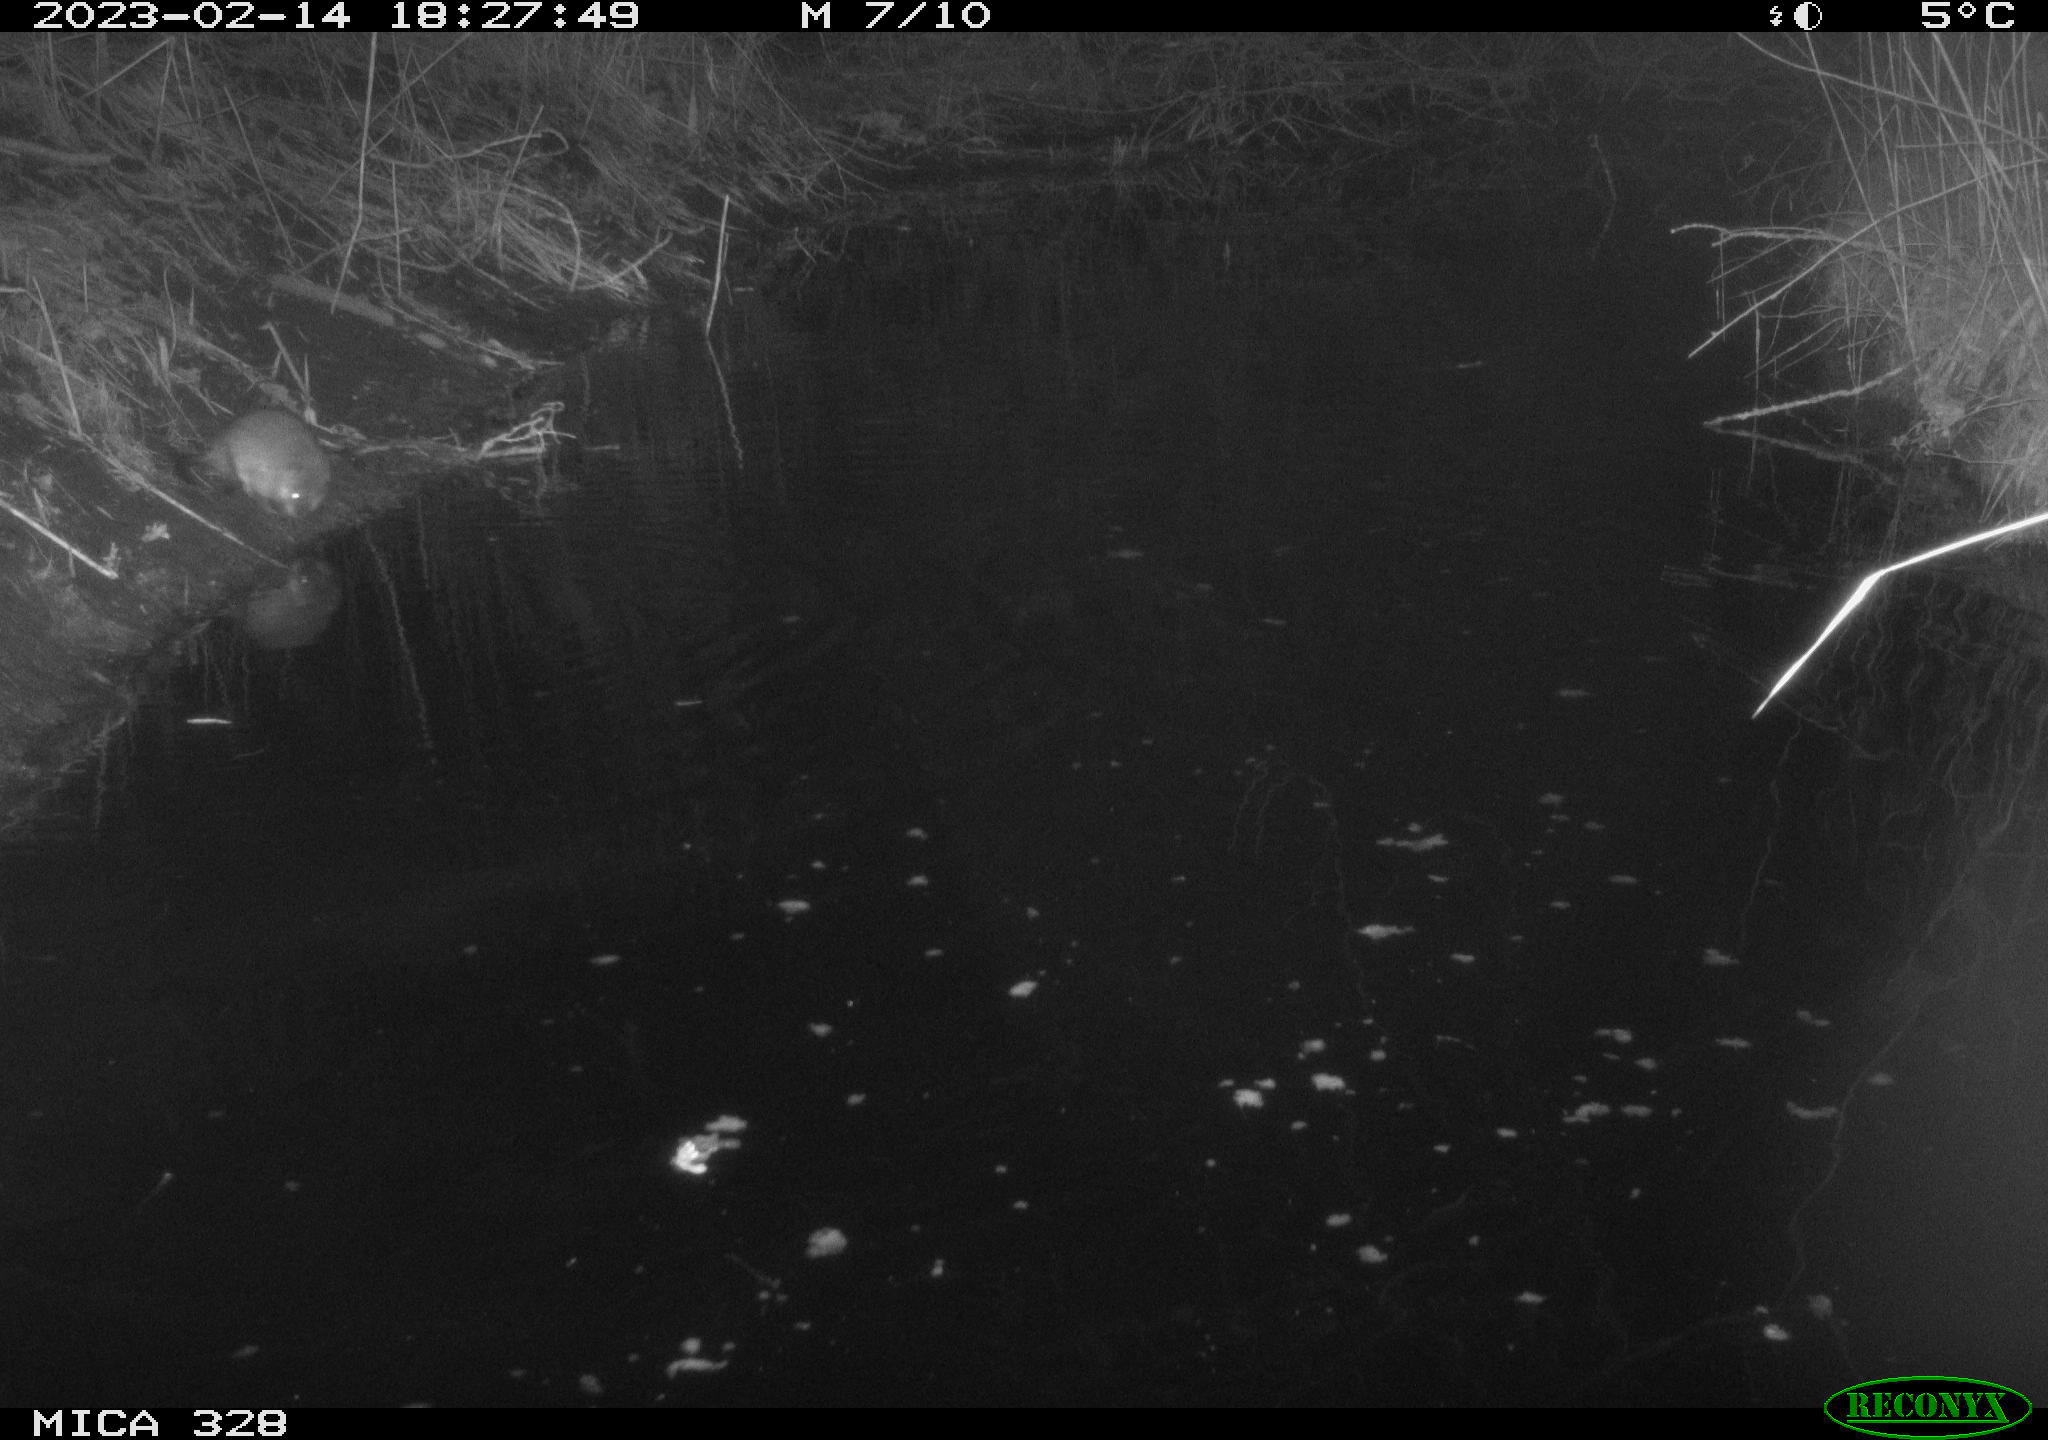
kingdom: Animalia
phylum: Chordata
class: Mammalia
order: Rodentia
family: Cricetidae
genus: Ondatra
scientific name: Ondatra zibethicus
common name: Muskrat
